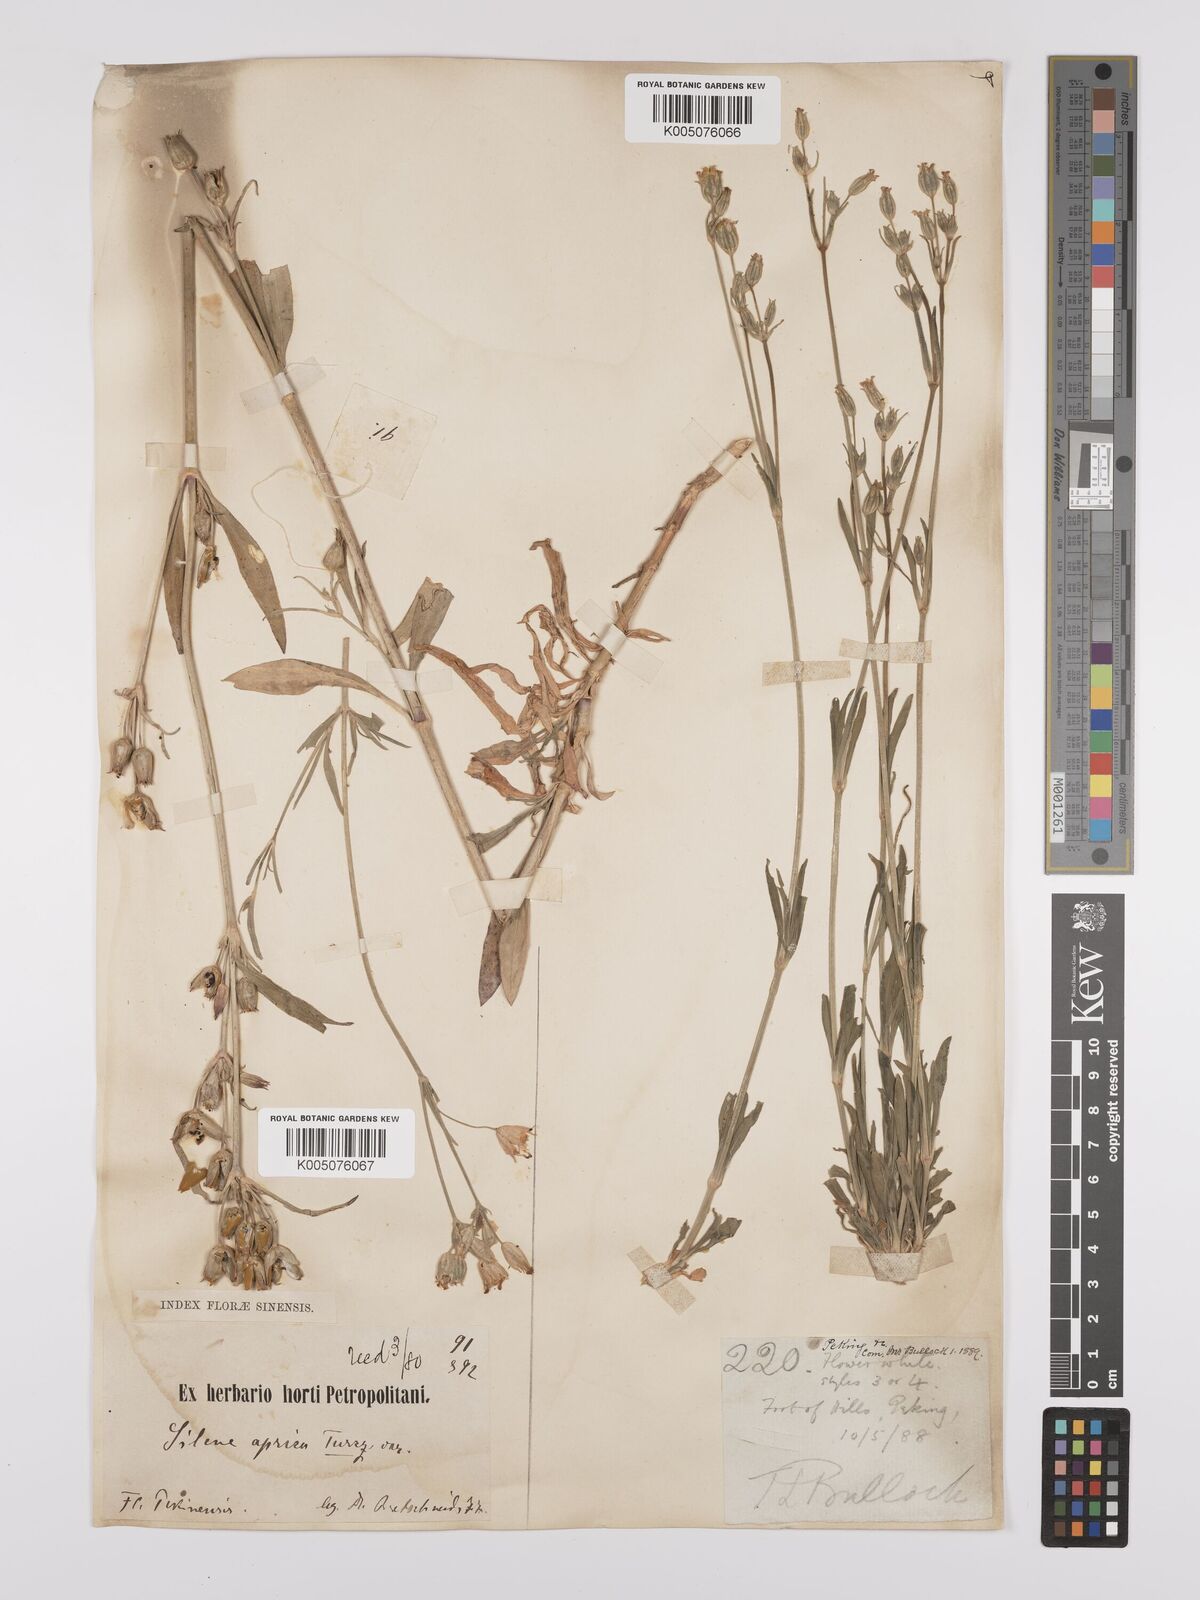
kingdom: Plantae
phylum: Tracheophyta
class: Magnoliopsida
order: Caryophyllales
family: Caryophyllaceae
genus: Silene
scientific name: Silene aprica
